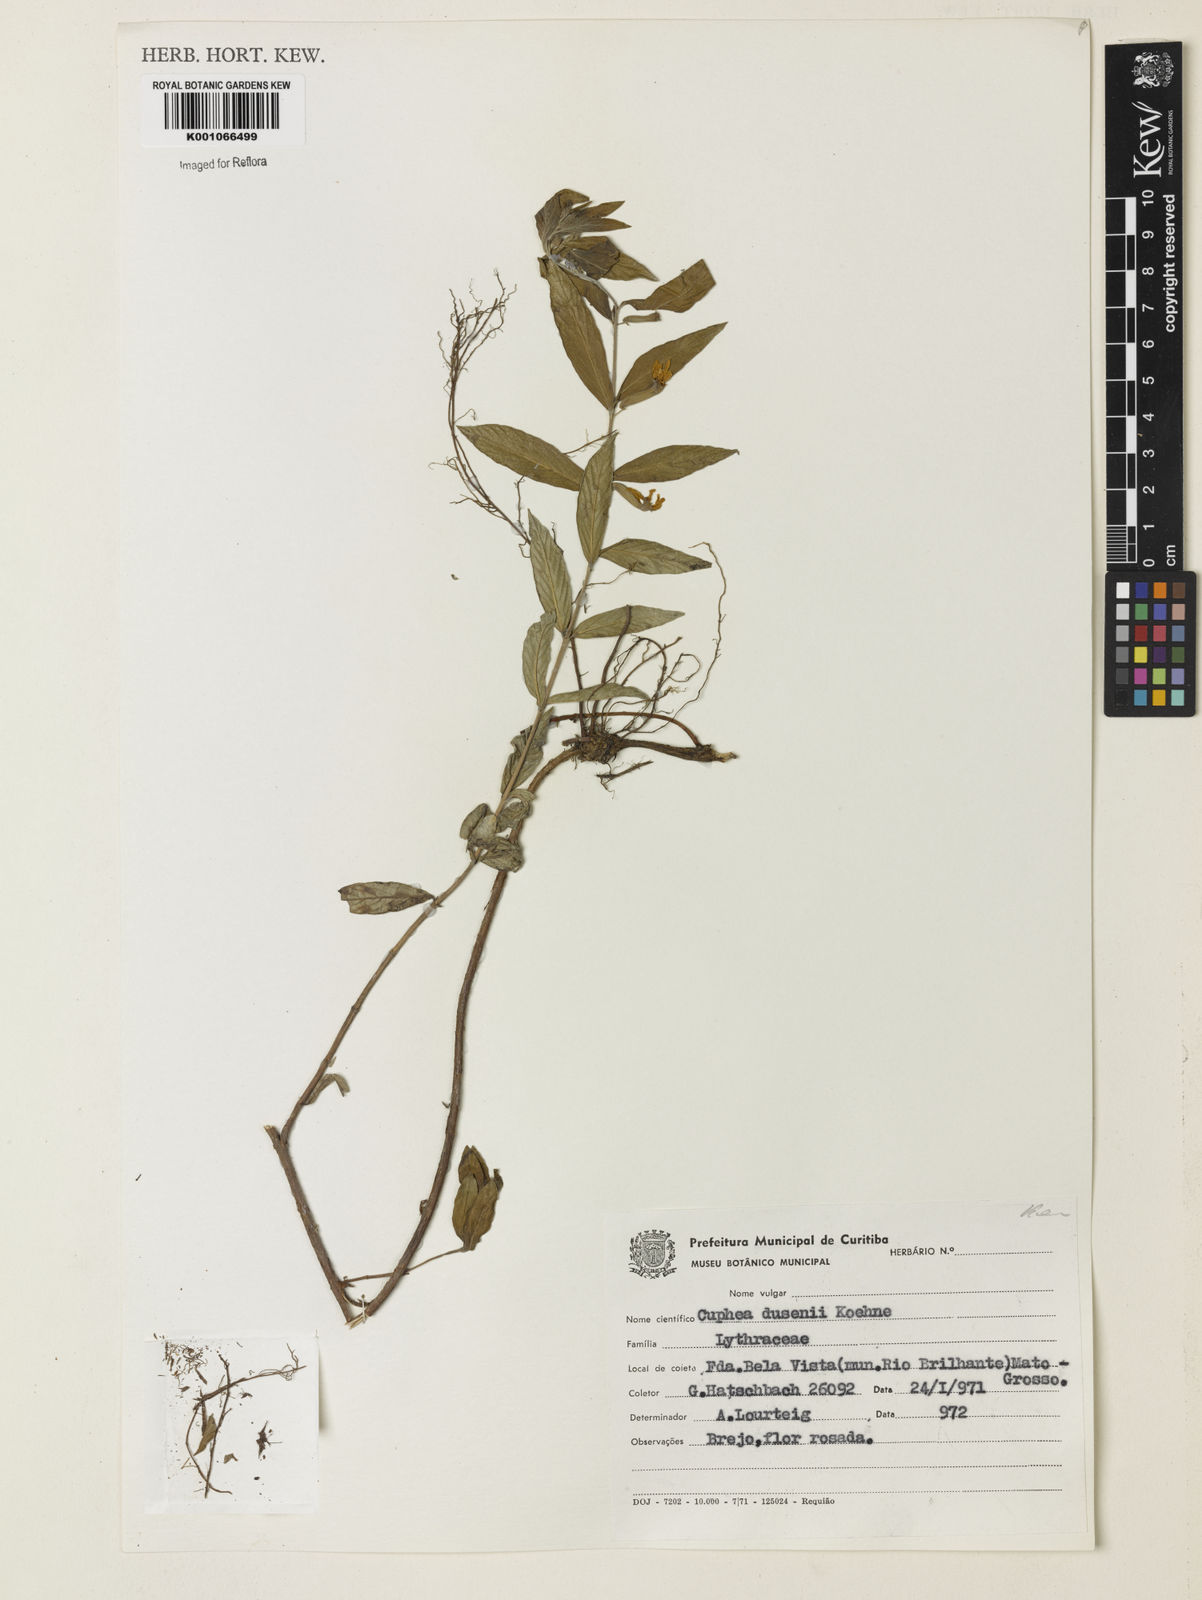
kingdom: Plantae
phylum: Tracheophyta
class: Magnoliopsida
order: Myrtales
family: Lythraceae
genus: Cuphea
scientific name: Cuphea dusenii
